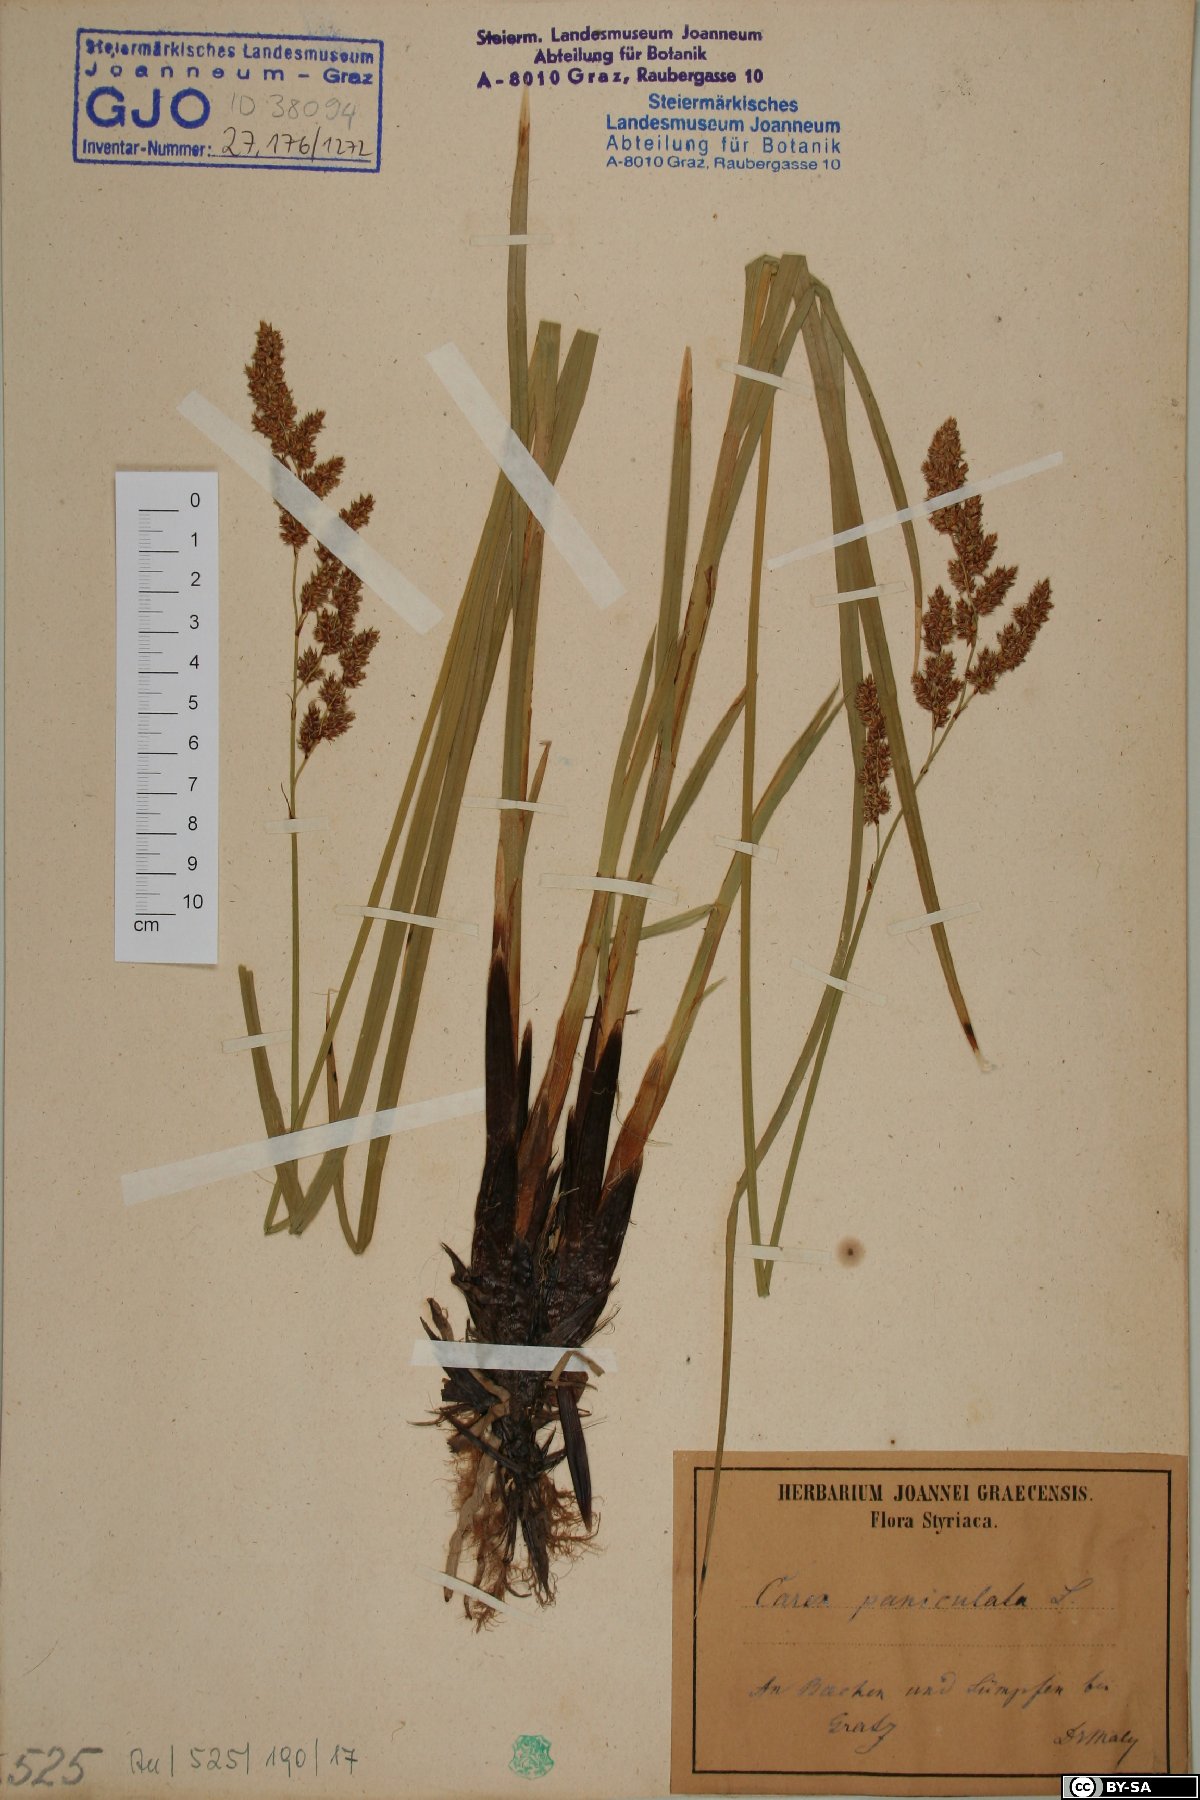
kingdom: Plantae
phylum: Tracheophyta
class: Liliopsida
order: Poales
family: Cyperaceae
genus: Carex
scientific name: Carex paniculata
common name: Greater tussock-sedge
